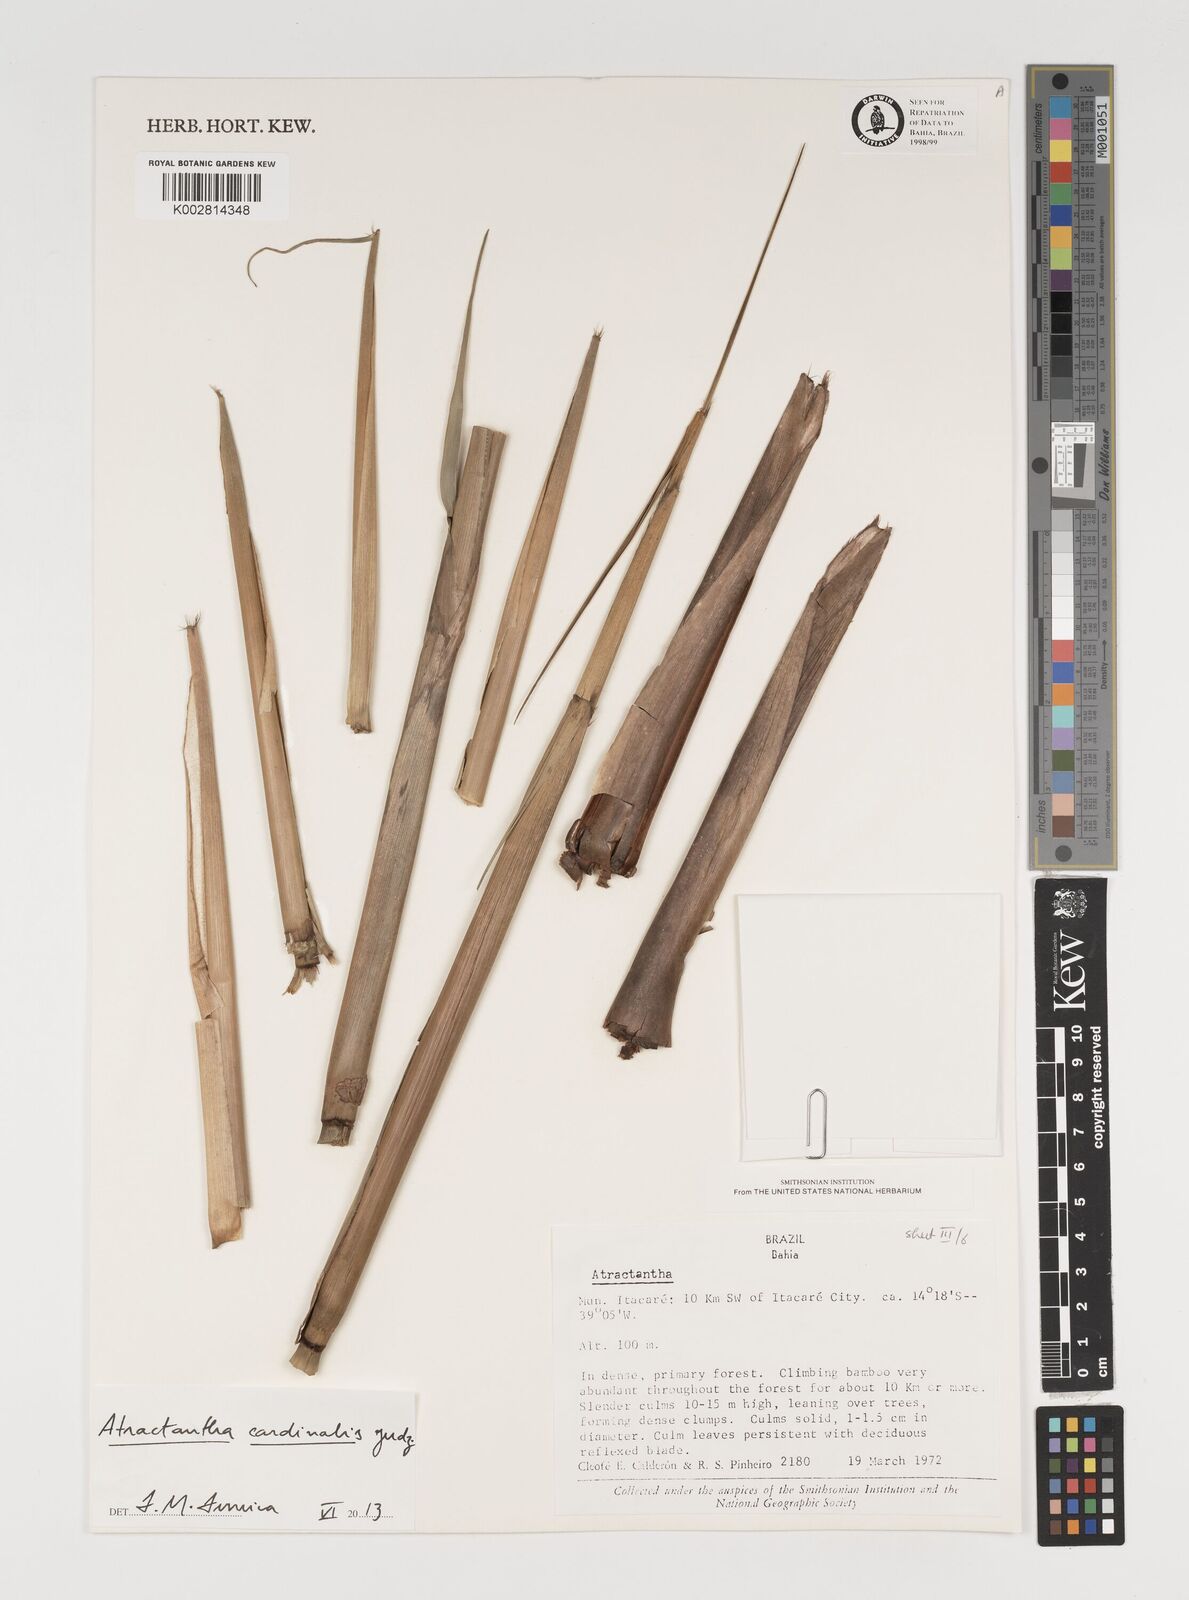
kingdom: Plantae
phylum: Tracheophyta
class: Liliopsida
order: Poales
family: Poaceae
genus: Atractantha
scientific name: Atractantha aureolanata
